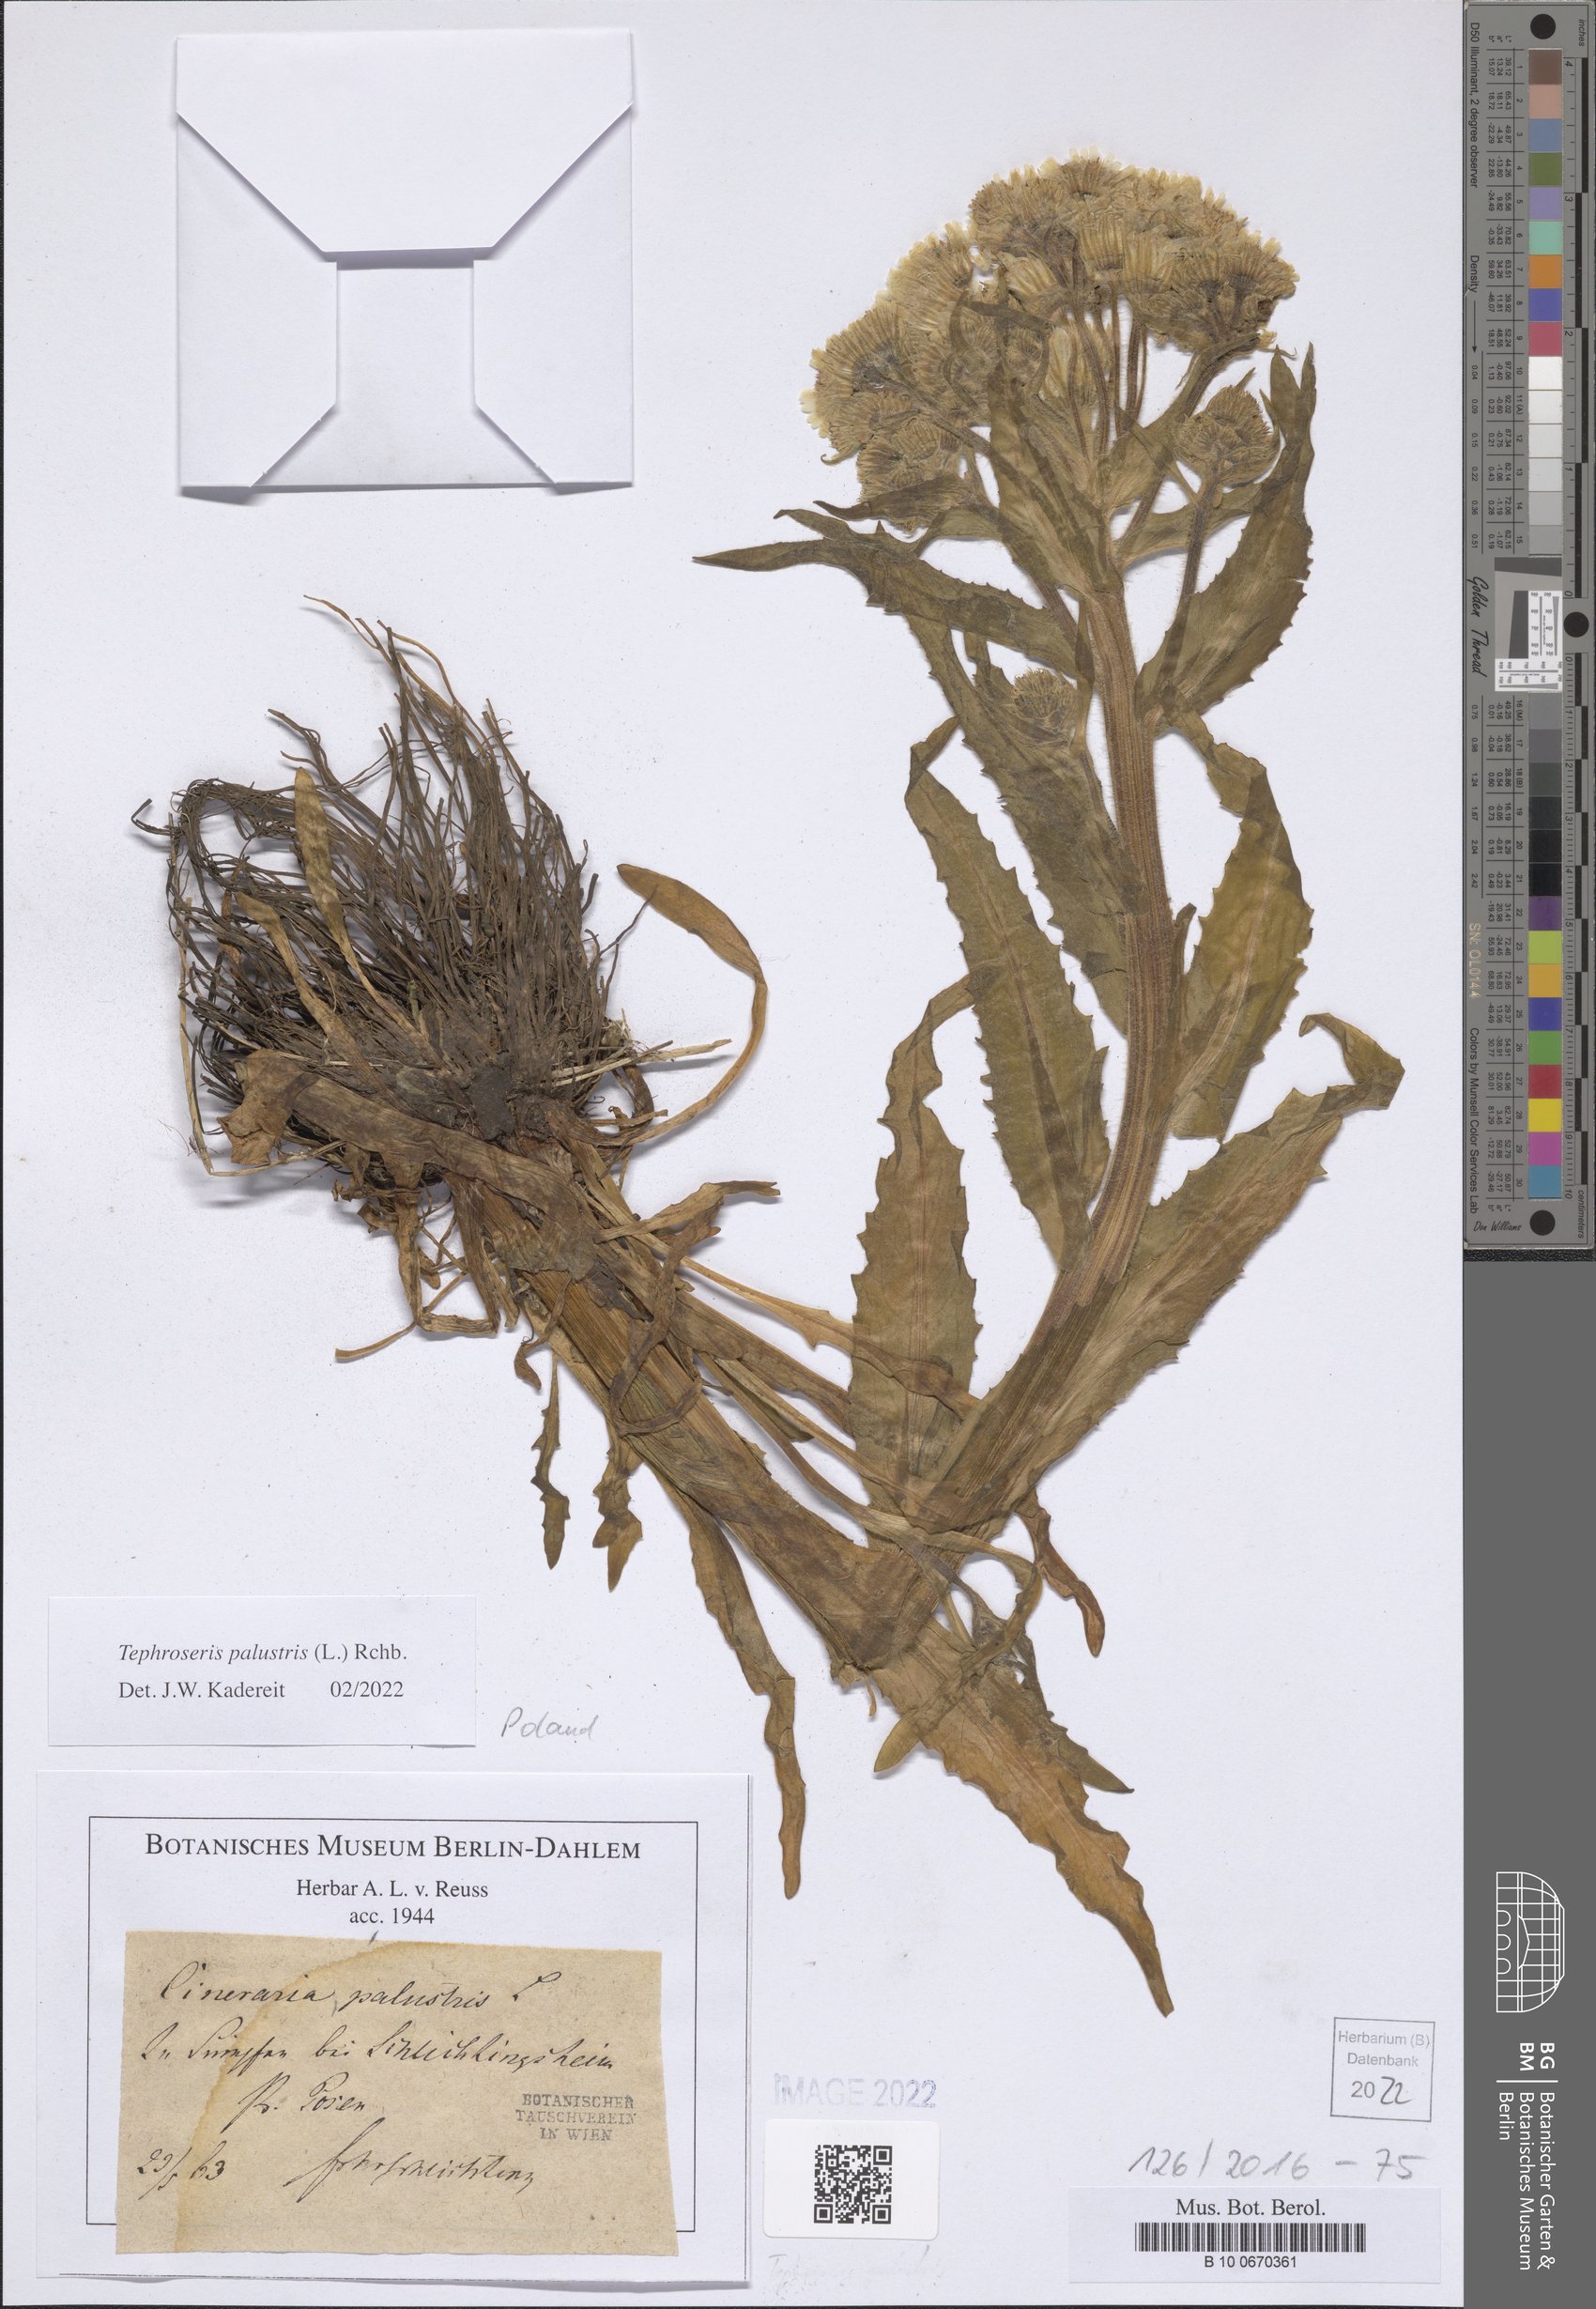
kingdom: Plantae
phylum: Tracheophyta
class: Magnoliopsida
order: Asterales
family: Asteraceae
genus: Tephroseris
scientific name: Tephroseris palustris
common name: Marsh fleawort
